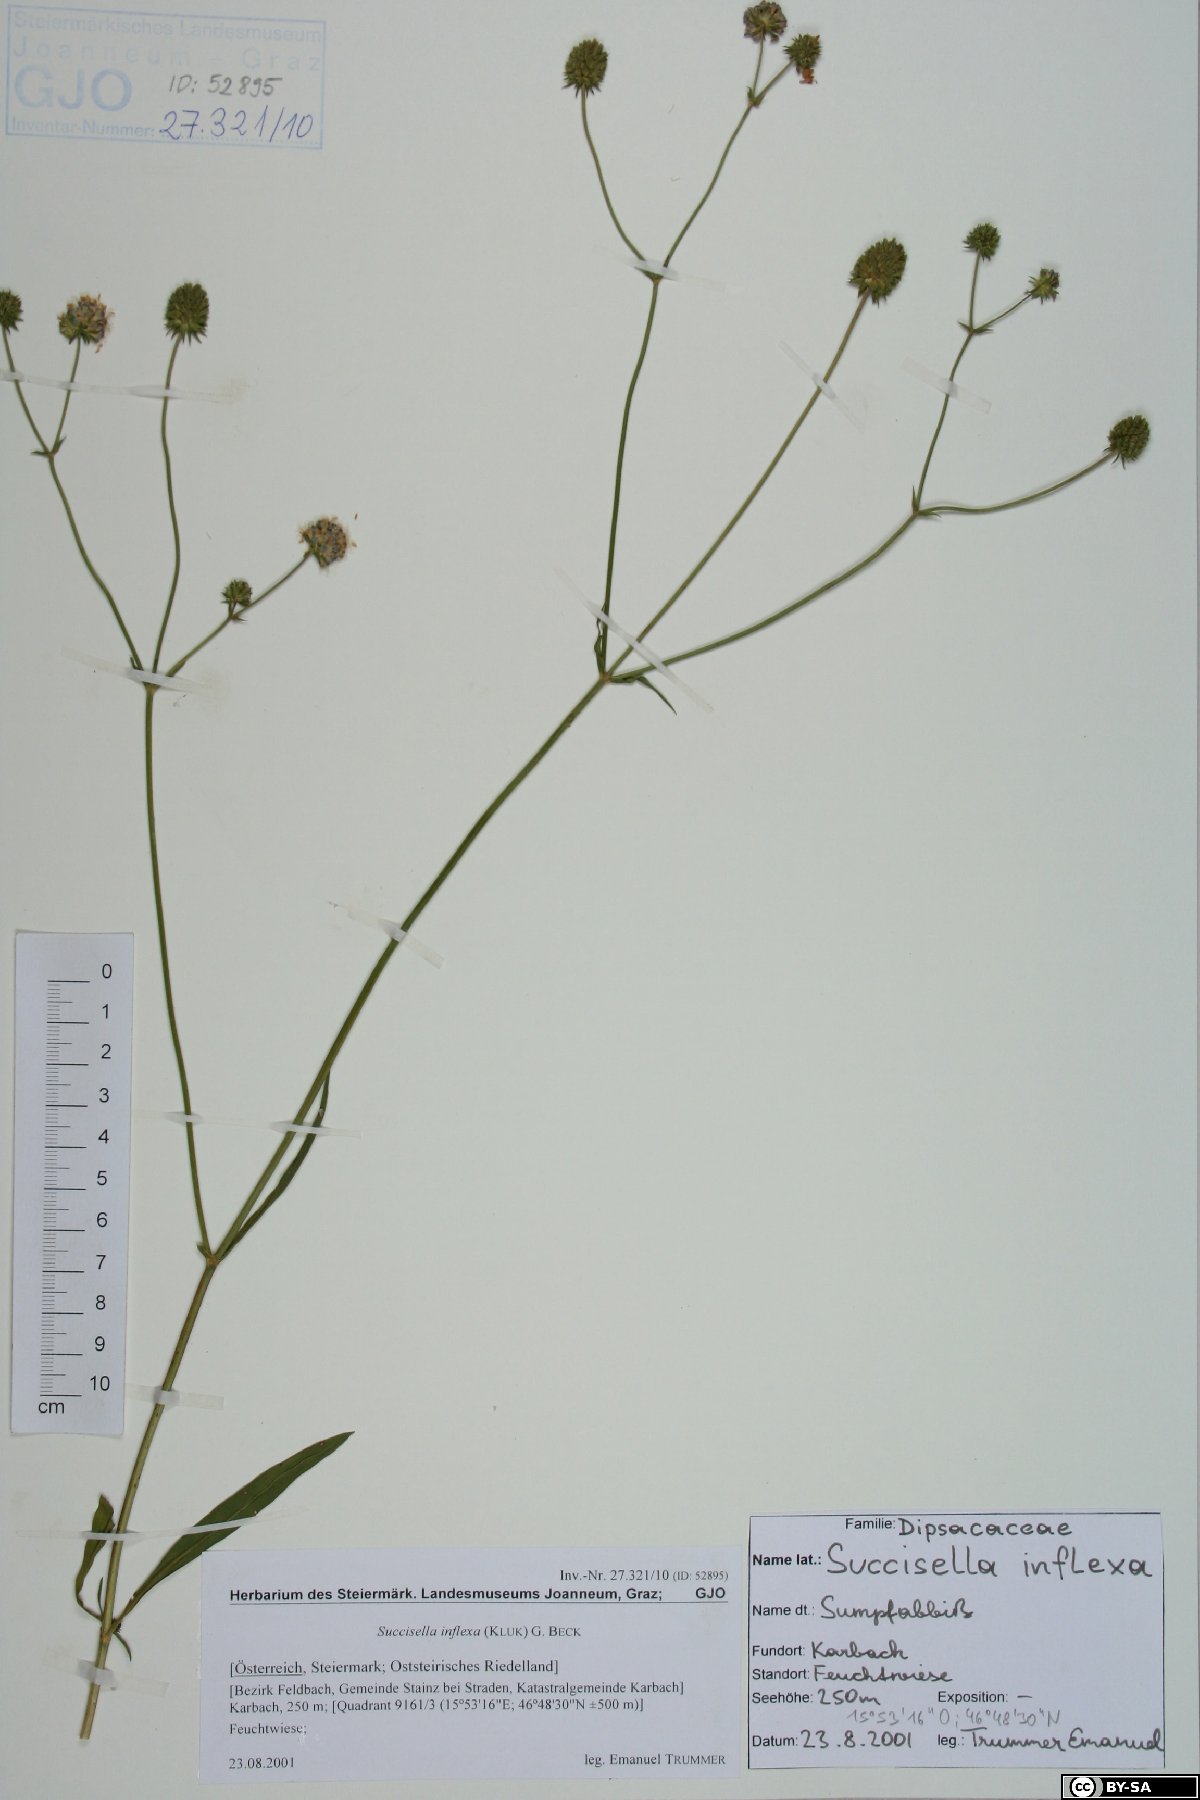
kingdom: Plantae
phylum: Tracheophyta
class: Magnoliopsida
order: Dipsacales
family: Caprifoliaceae
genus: Succisella
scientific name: Succisella inflexa
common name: Southern succisella
